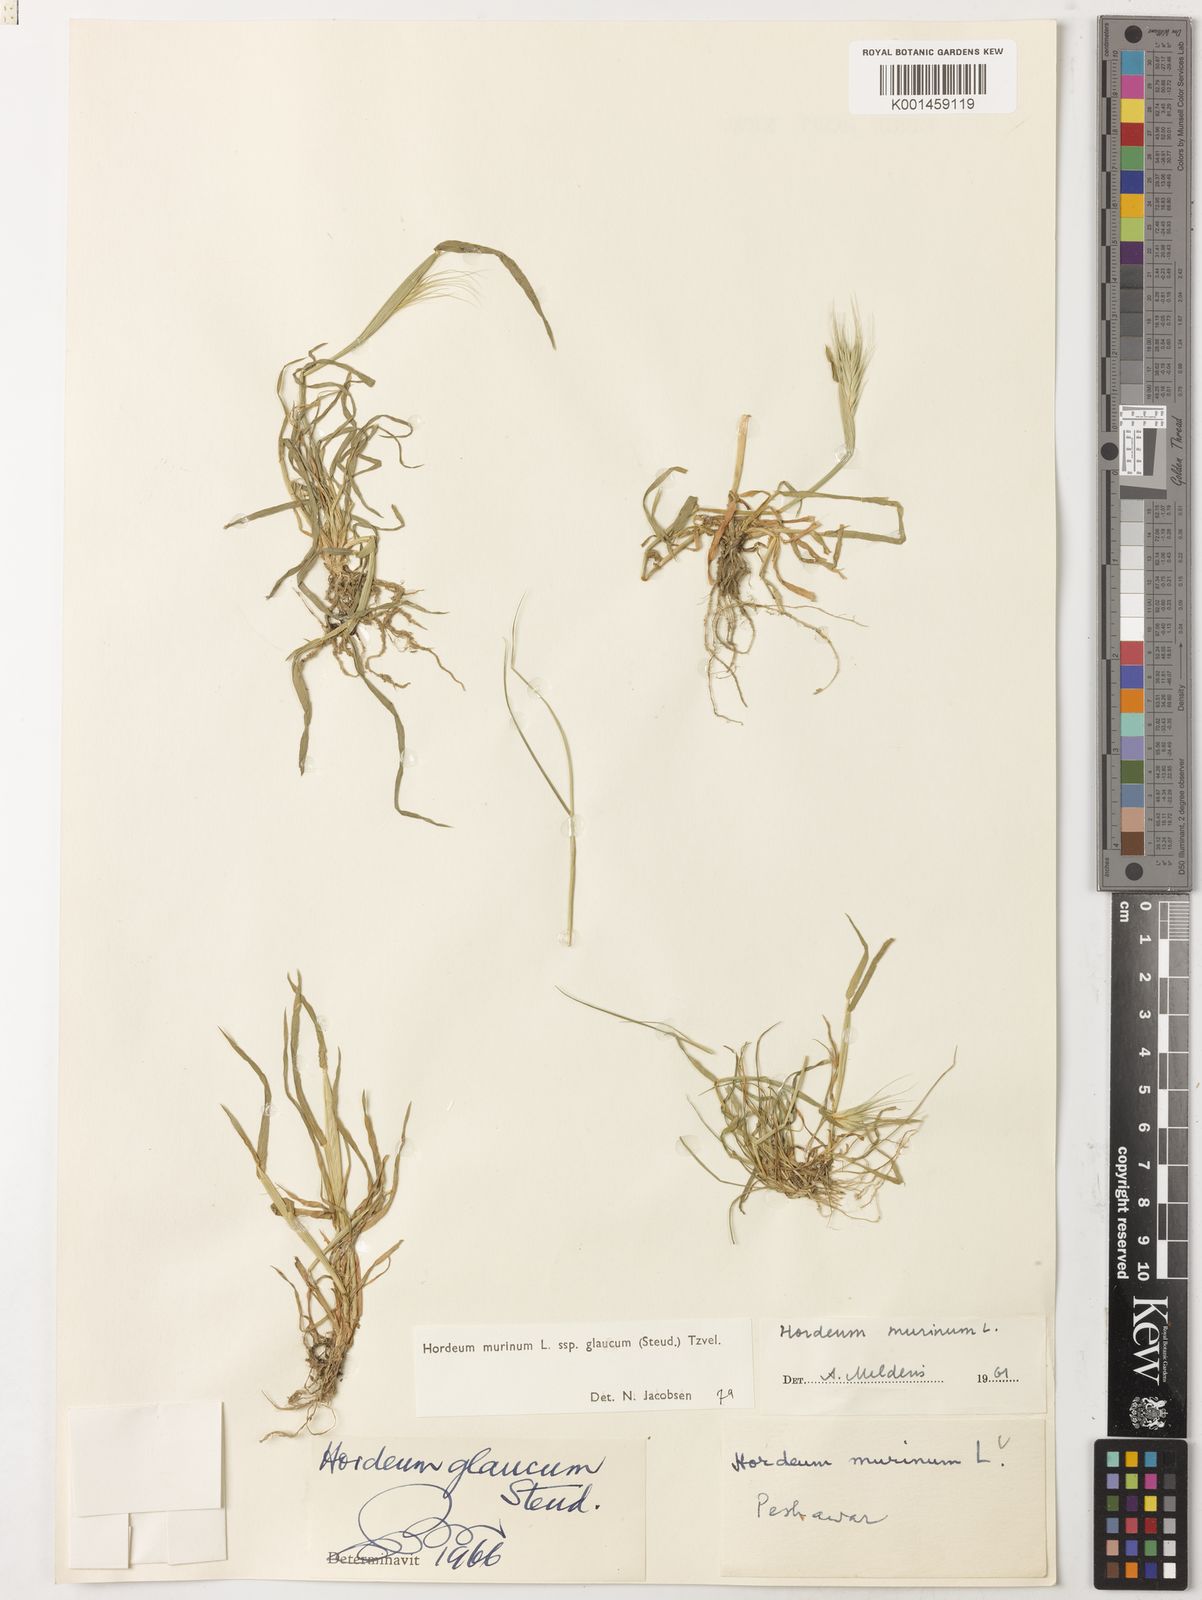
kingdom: Plantae
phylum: Tracheophyta
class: Liliopsida
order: Poales
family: Poaceae
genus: Hordeum
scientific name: Hordeum murinum
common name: Wall barley
